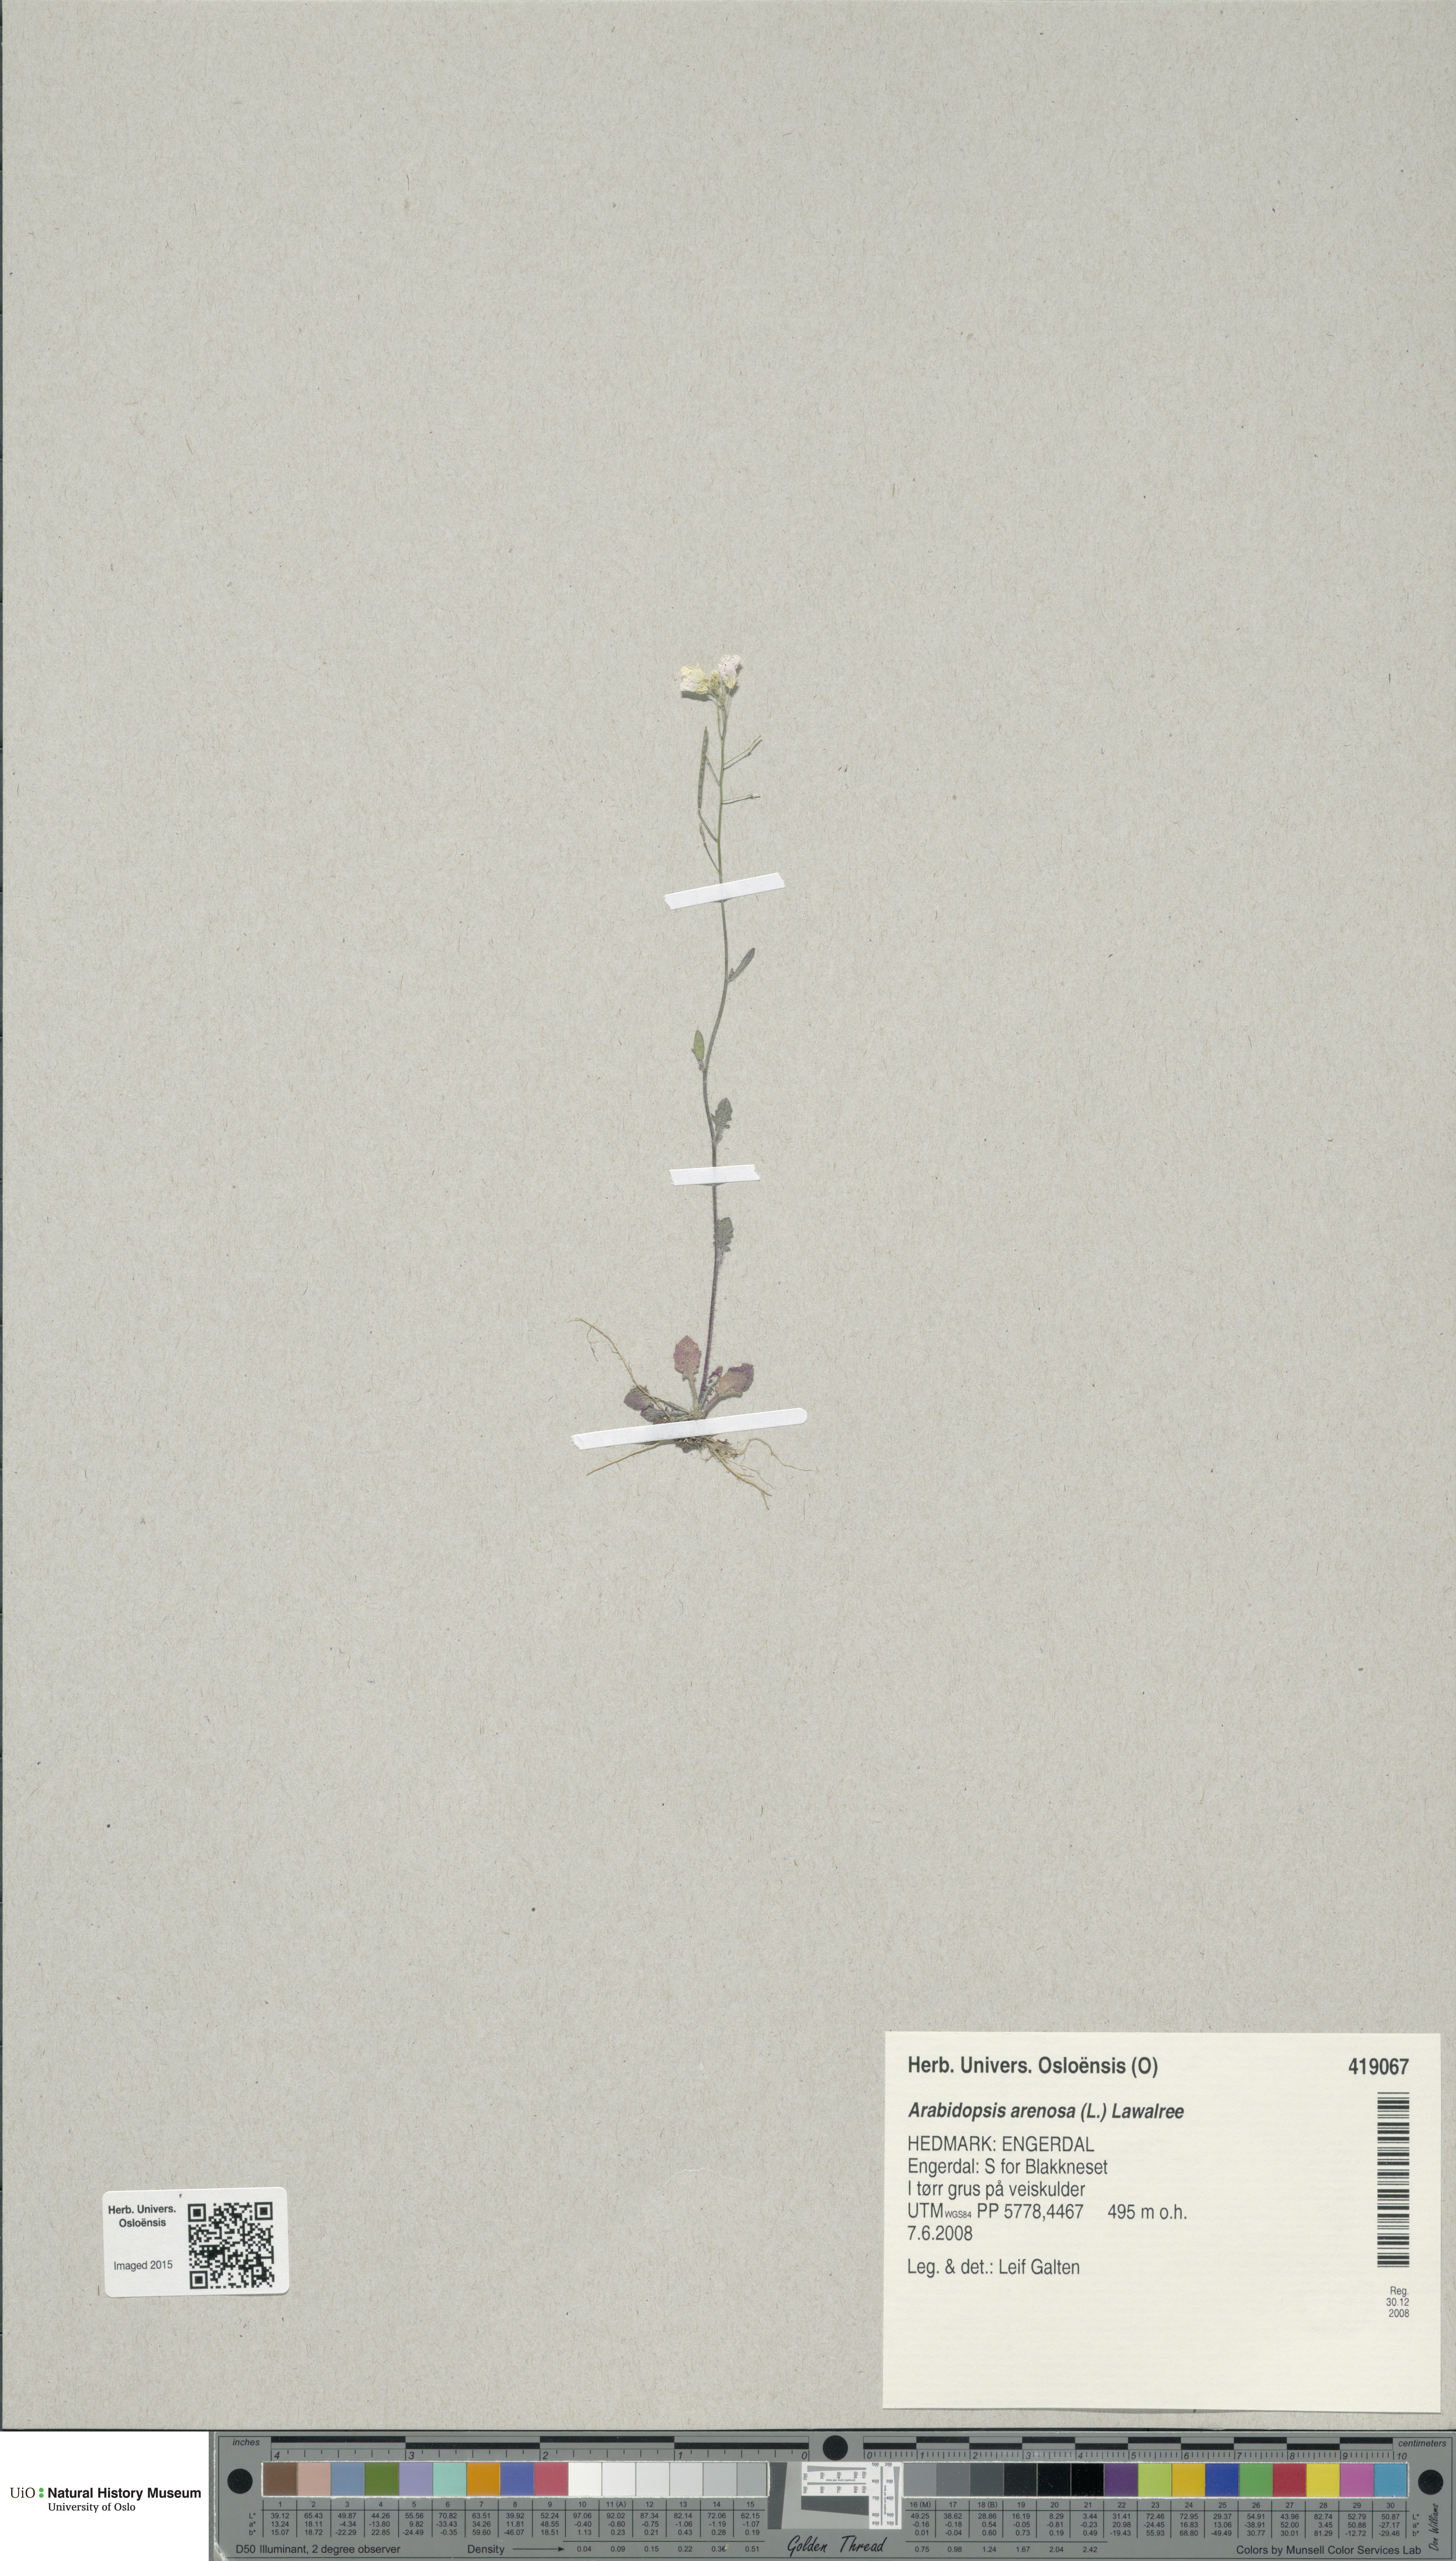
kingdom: Plantae
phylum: Tracheophyta
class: Magnoliopsida
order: Brassicales
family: Brassicaceae
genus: Arabidopsis
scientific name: Arabidopsis arenosa
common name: Sand rock-cress
